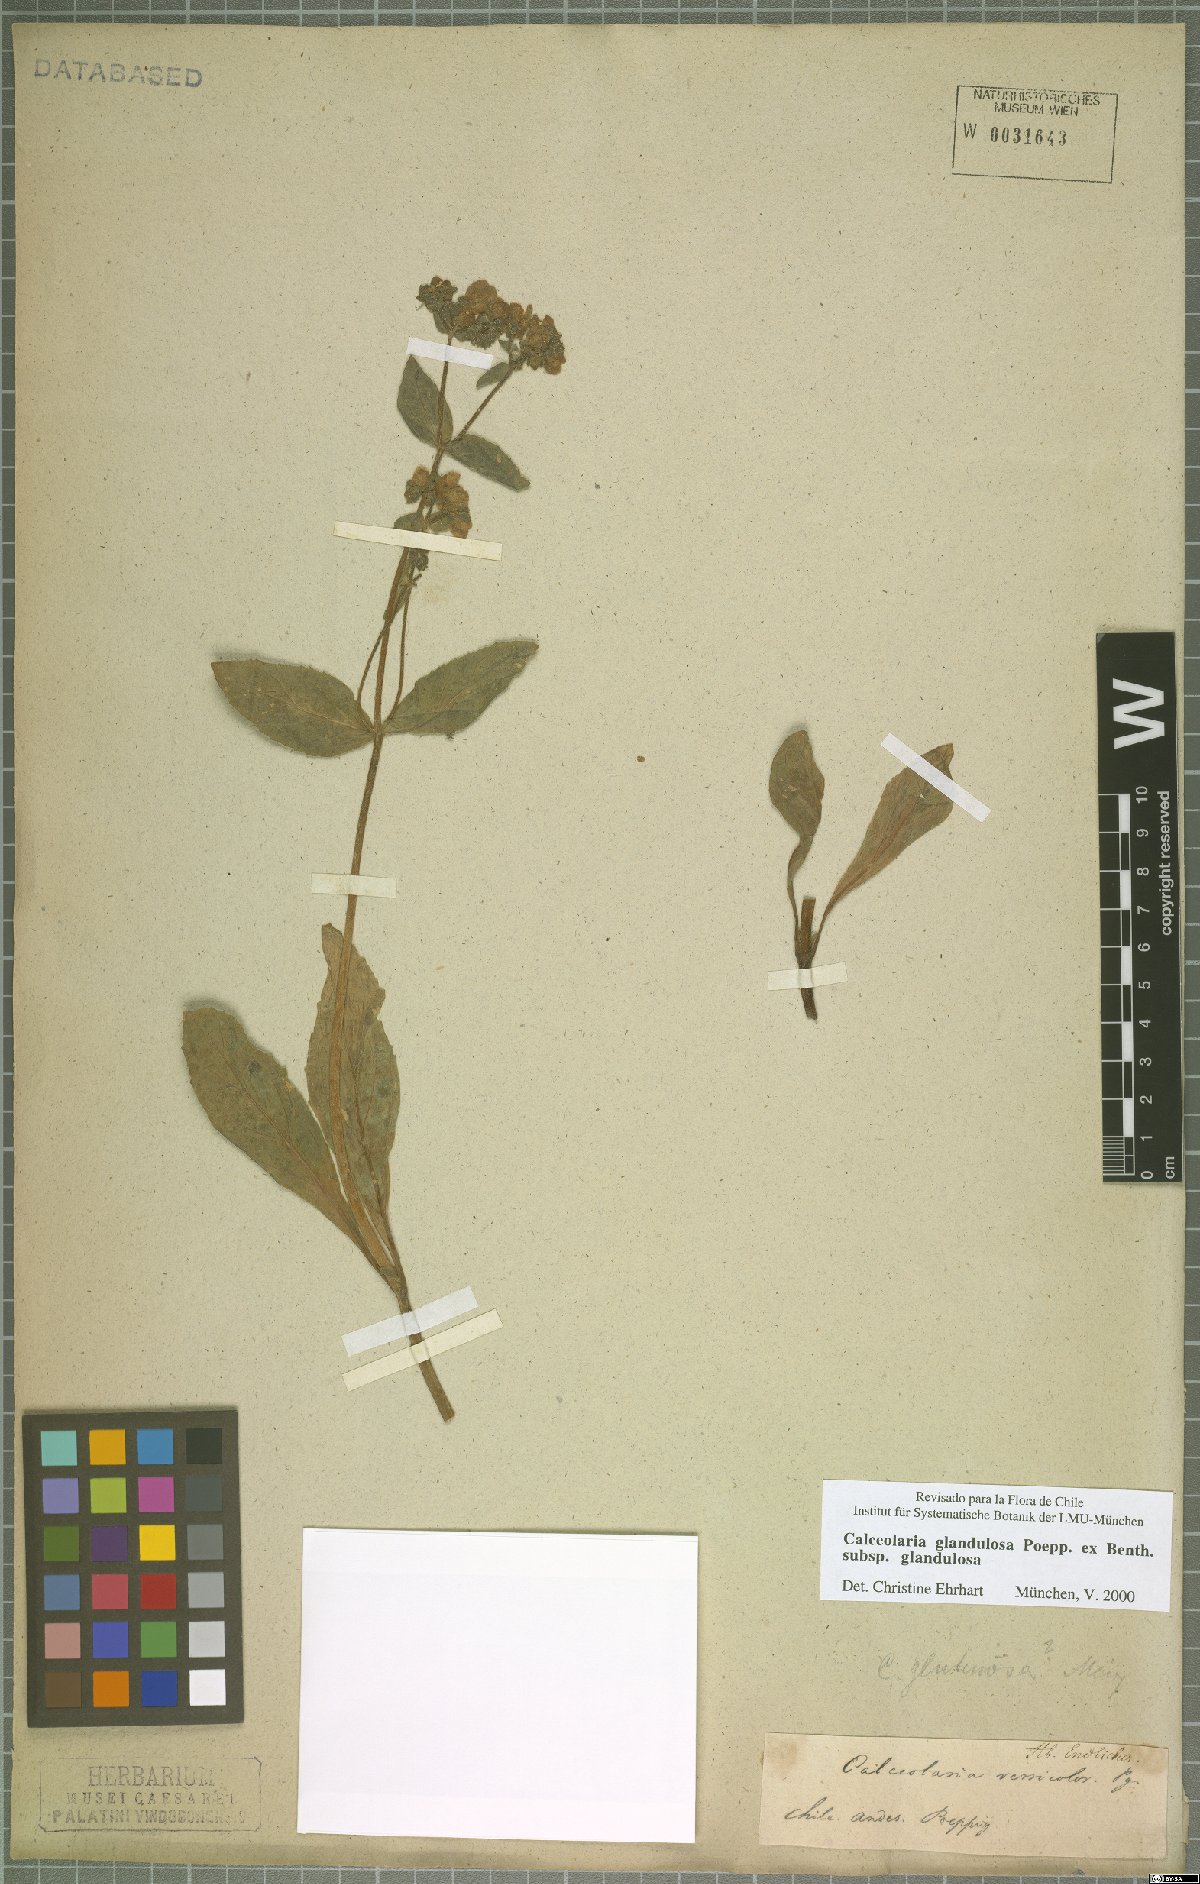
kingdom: Plantae
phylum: Tracheophyta
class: Magnoliopsida
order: Lamiales
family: Calceolariaceae
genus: Calceolaria
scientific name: Calceolaria glandulosa
